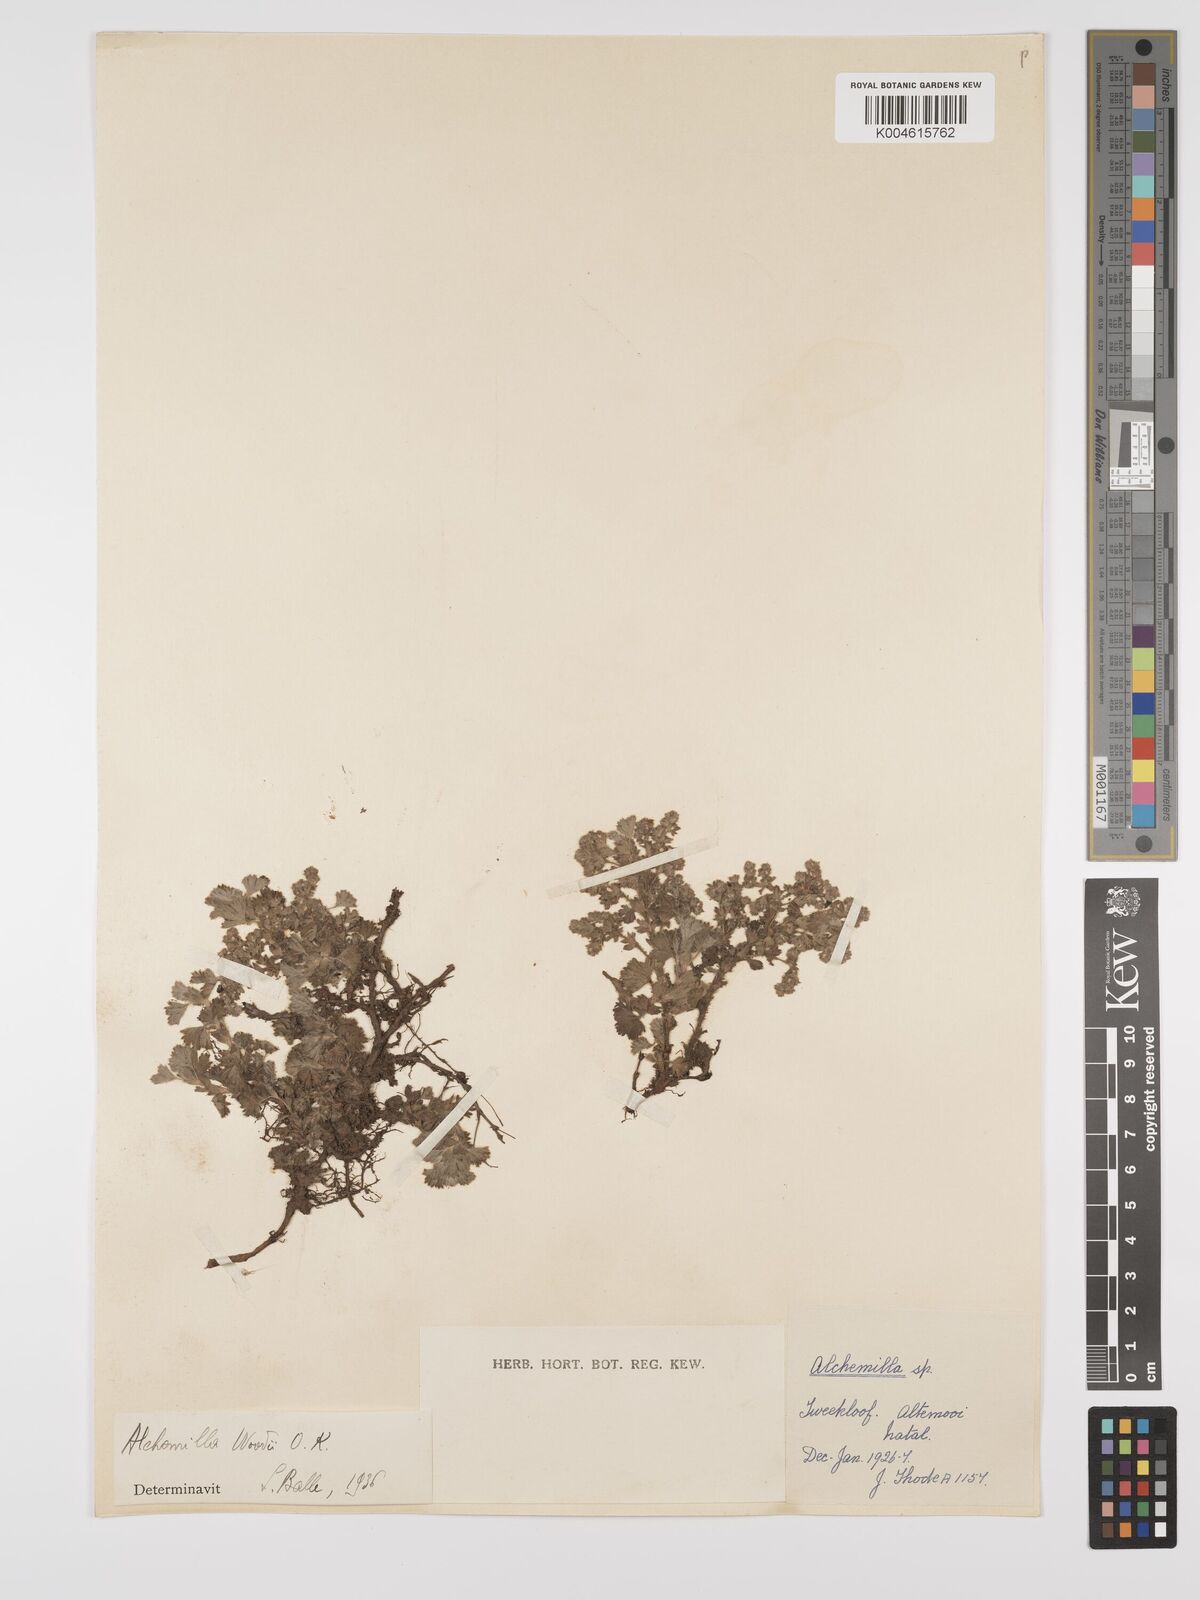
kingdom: Plantae
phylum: Tracheophyta
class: Magnoliopsida
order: Rosales
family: Rosaceae
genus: Alchemilla
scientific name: Alchemilla woodii
